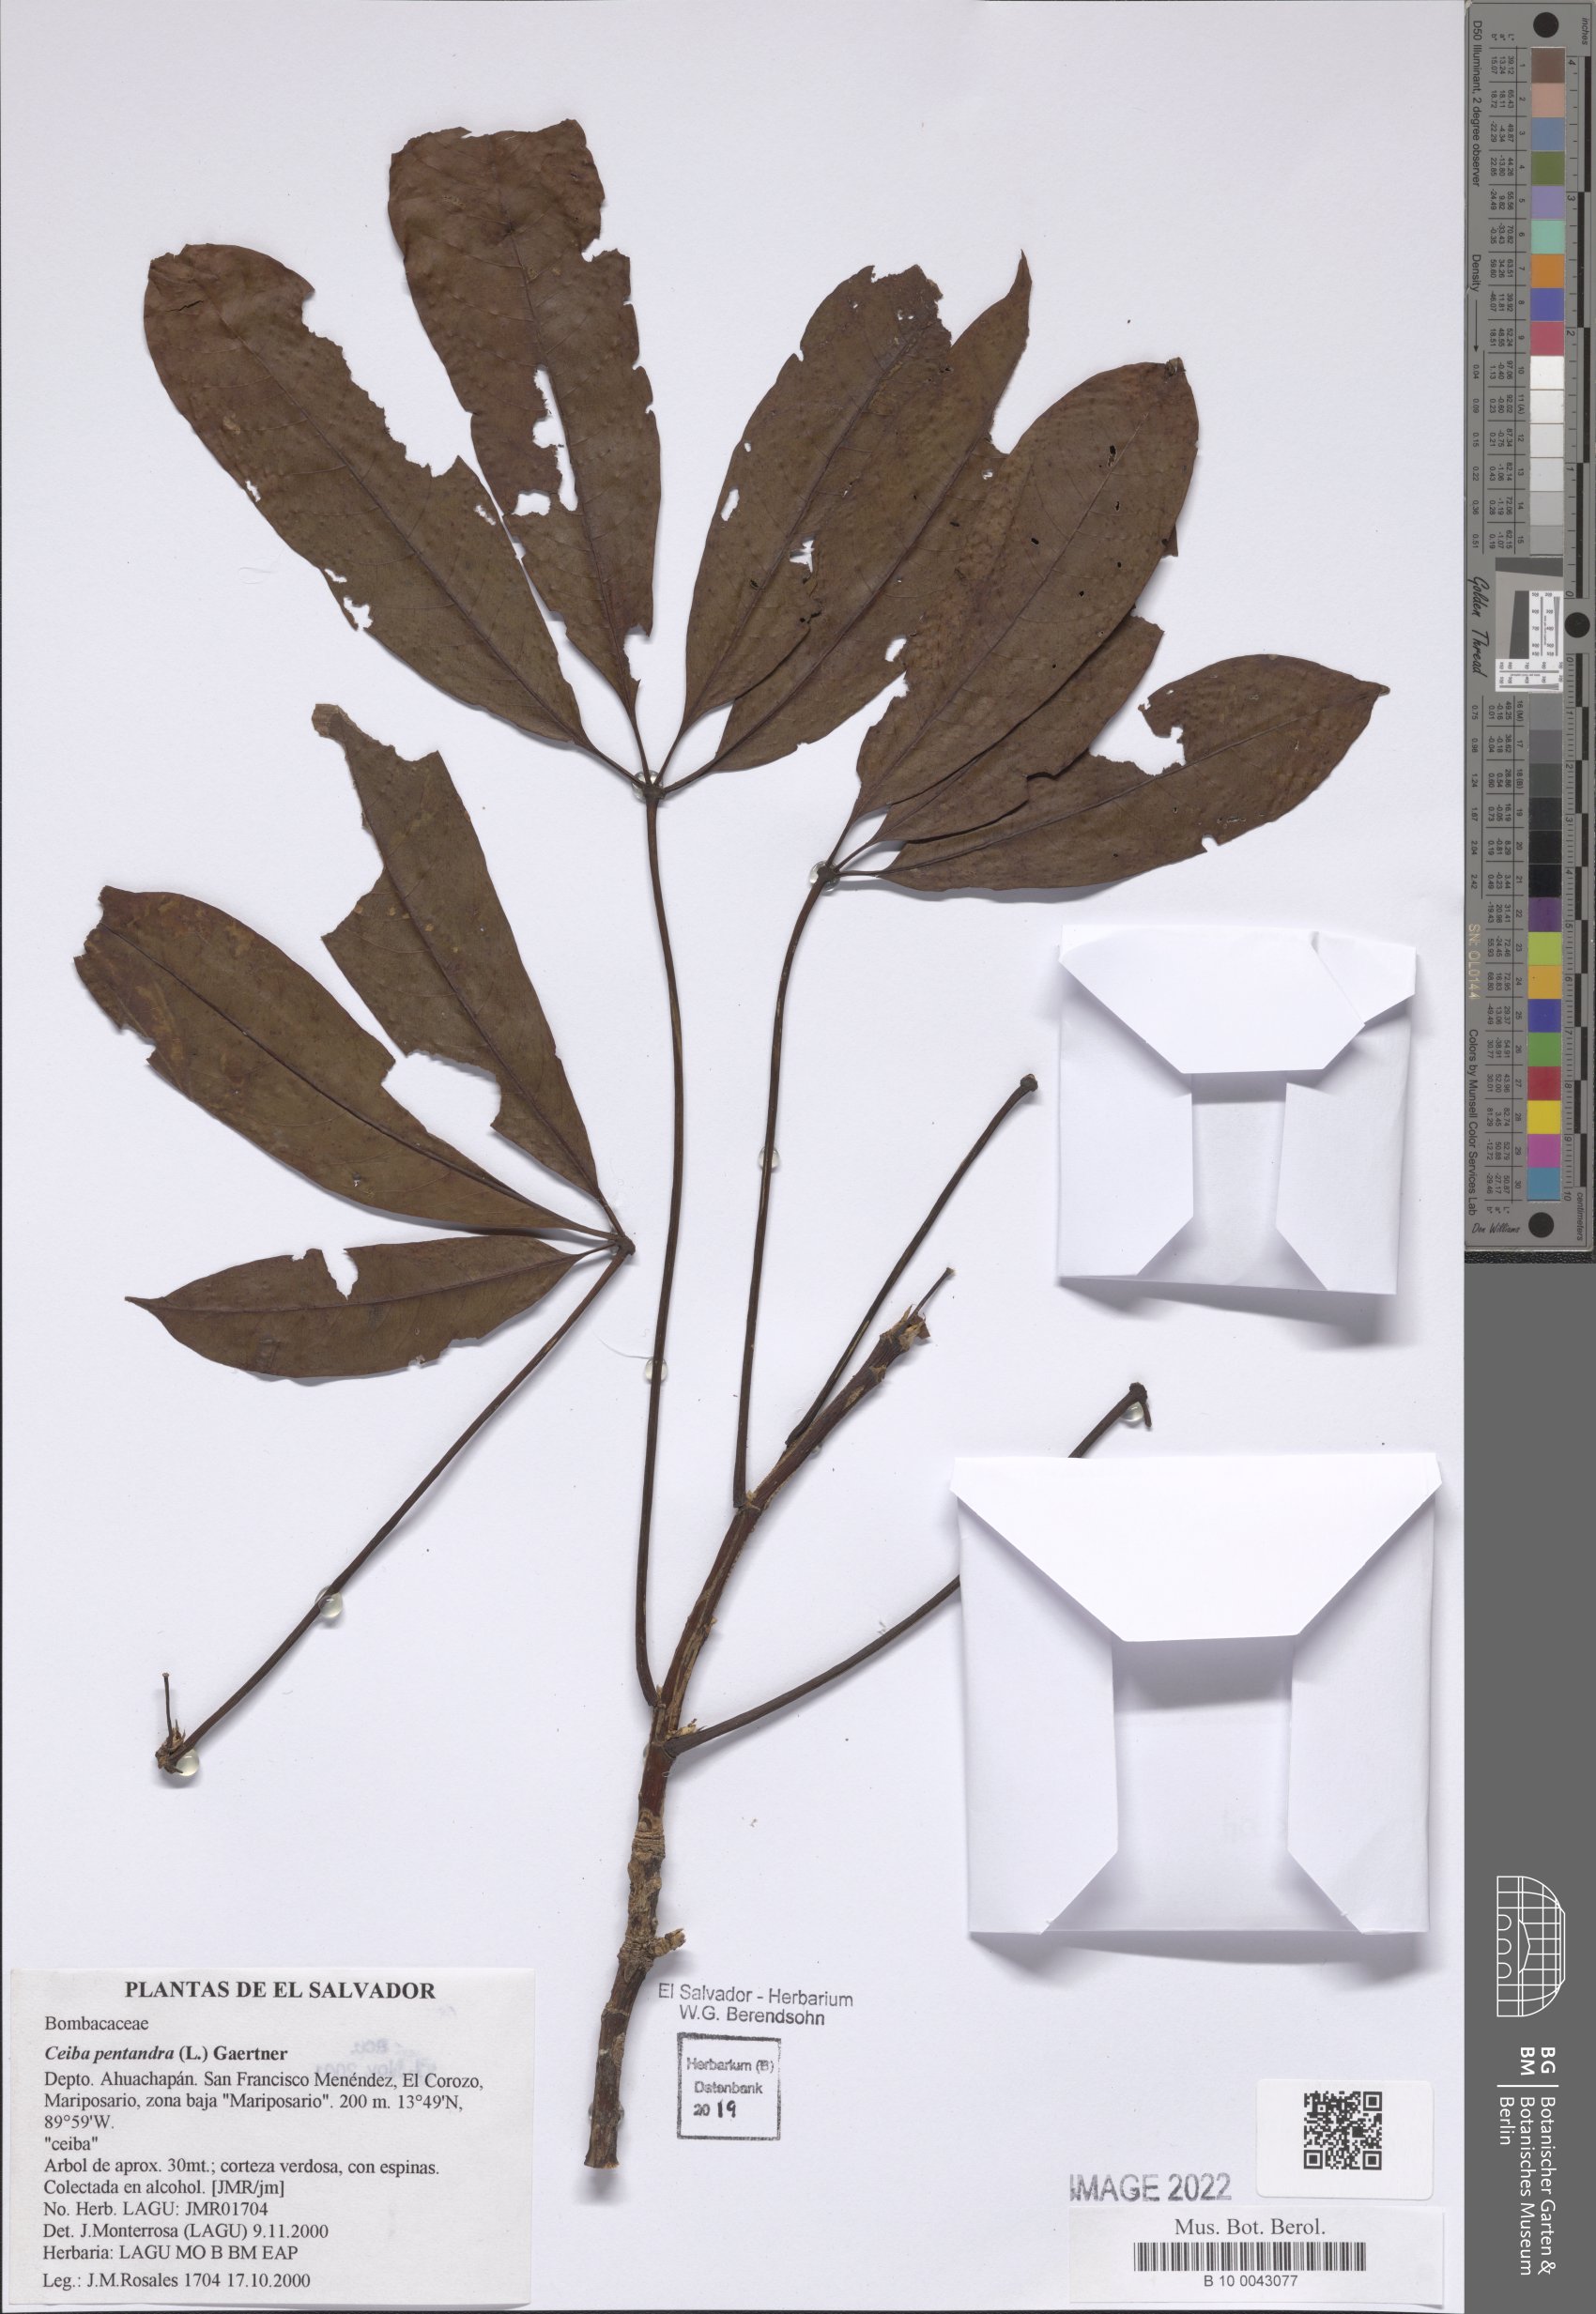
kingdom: Plantae
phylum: Tracheophyta
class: Magnoliopsida
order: Malvales
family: Malvaceae
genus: Ceiba
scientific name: Ceiba pentandra
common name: Kapok
